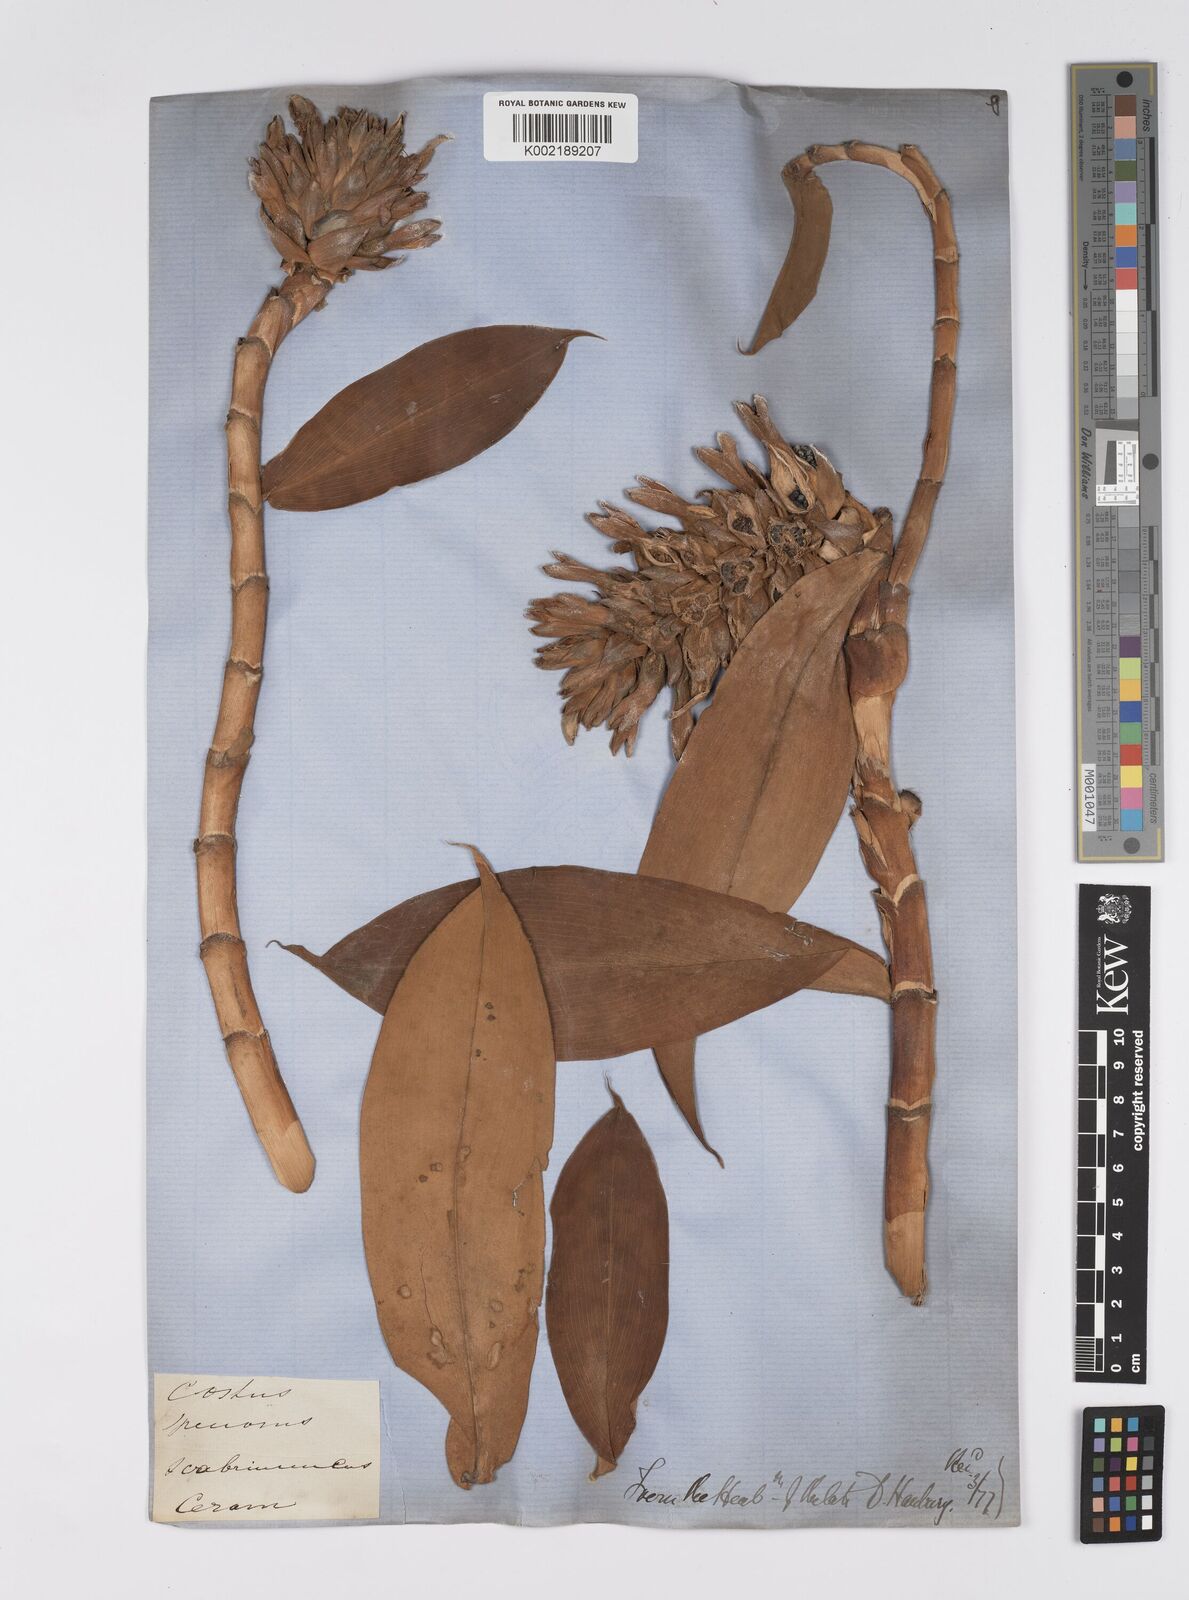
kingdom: Plantae
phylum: Tracheophyta
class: Liliopsida
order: Zingiberales
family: Costaceae
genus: Hellenia
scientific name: Hellenia speciosa
